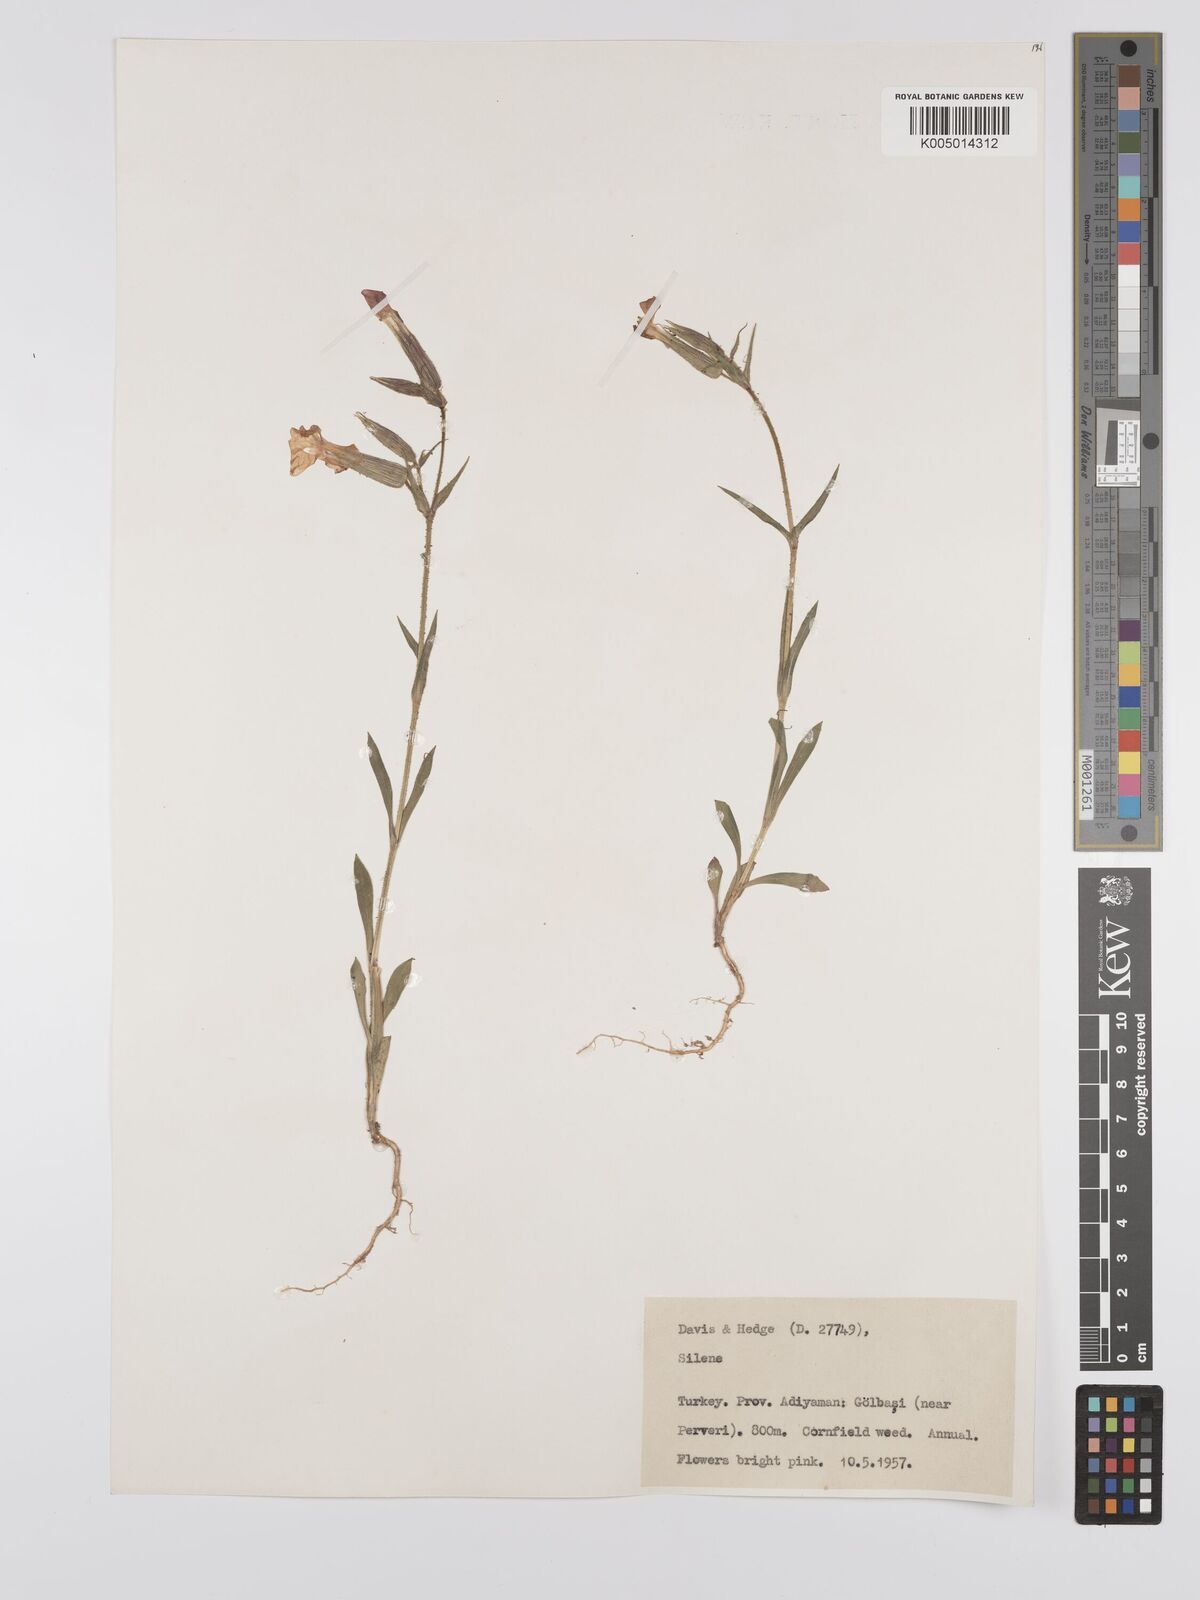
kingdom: Plantae
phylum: Tracheophyta
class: Magnoliopsida
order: Caryophyllales
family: Caryophyllaceae
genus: Silene
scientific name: Silene
